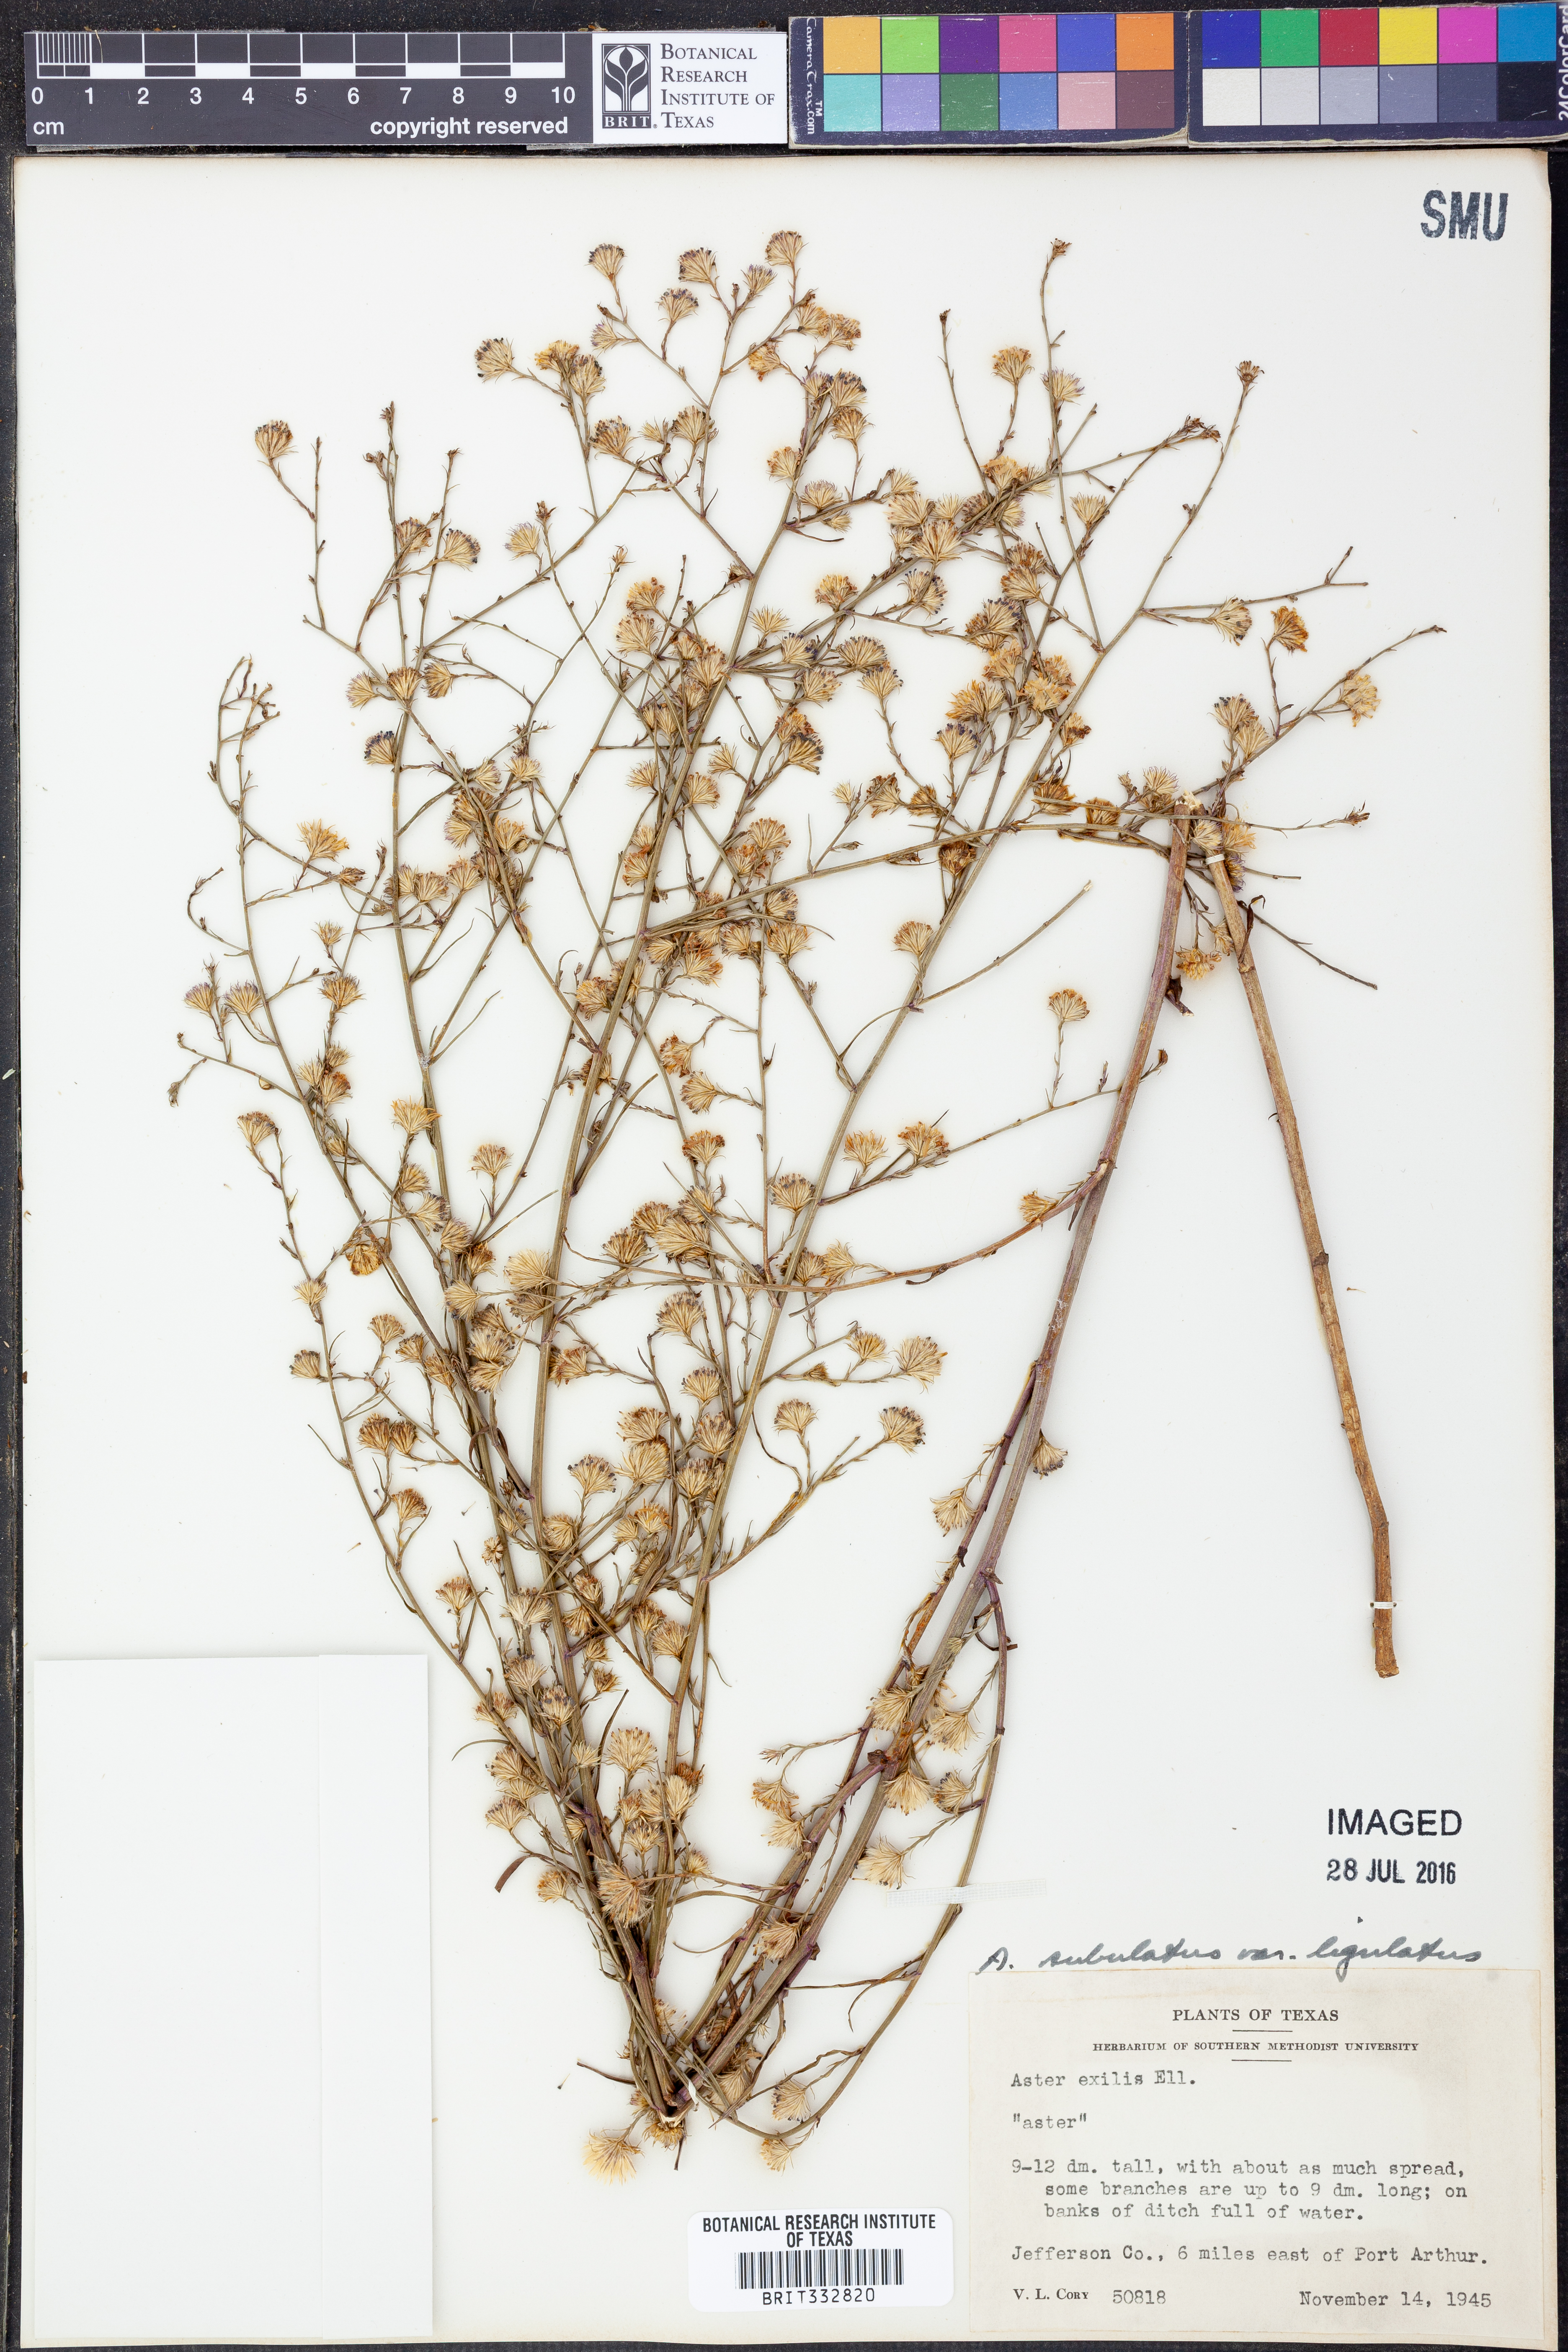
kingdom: Plantae
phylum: Tracheophyta
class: Magnoliopsida
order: Asterales
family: Asteraceae
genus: Symphyotrichum
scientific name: Symphyotrichum divaricatum
